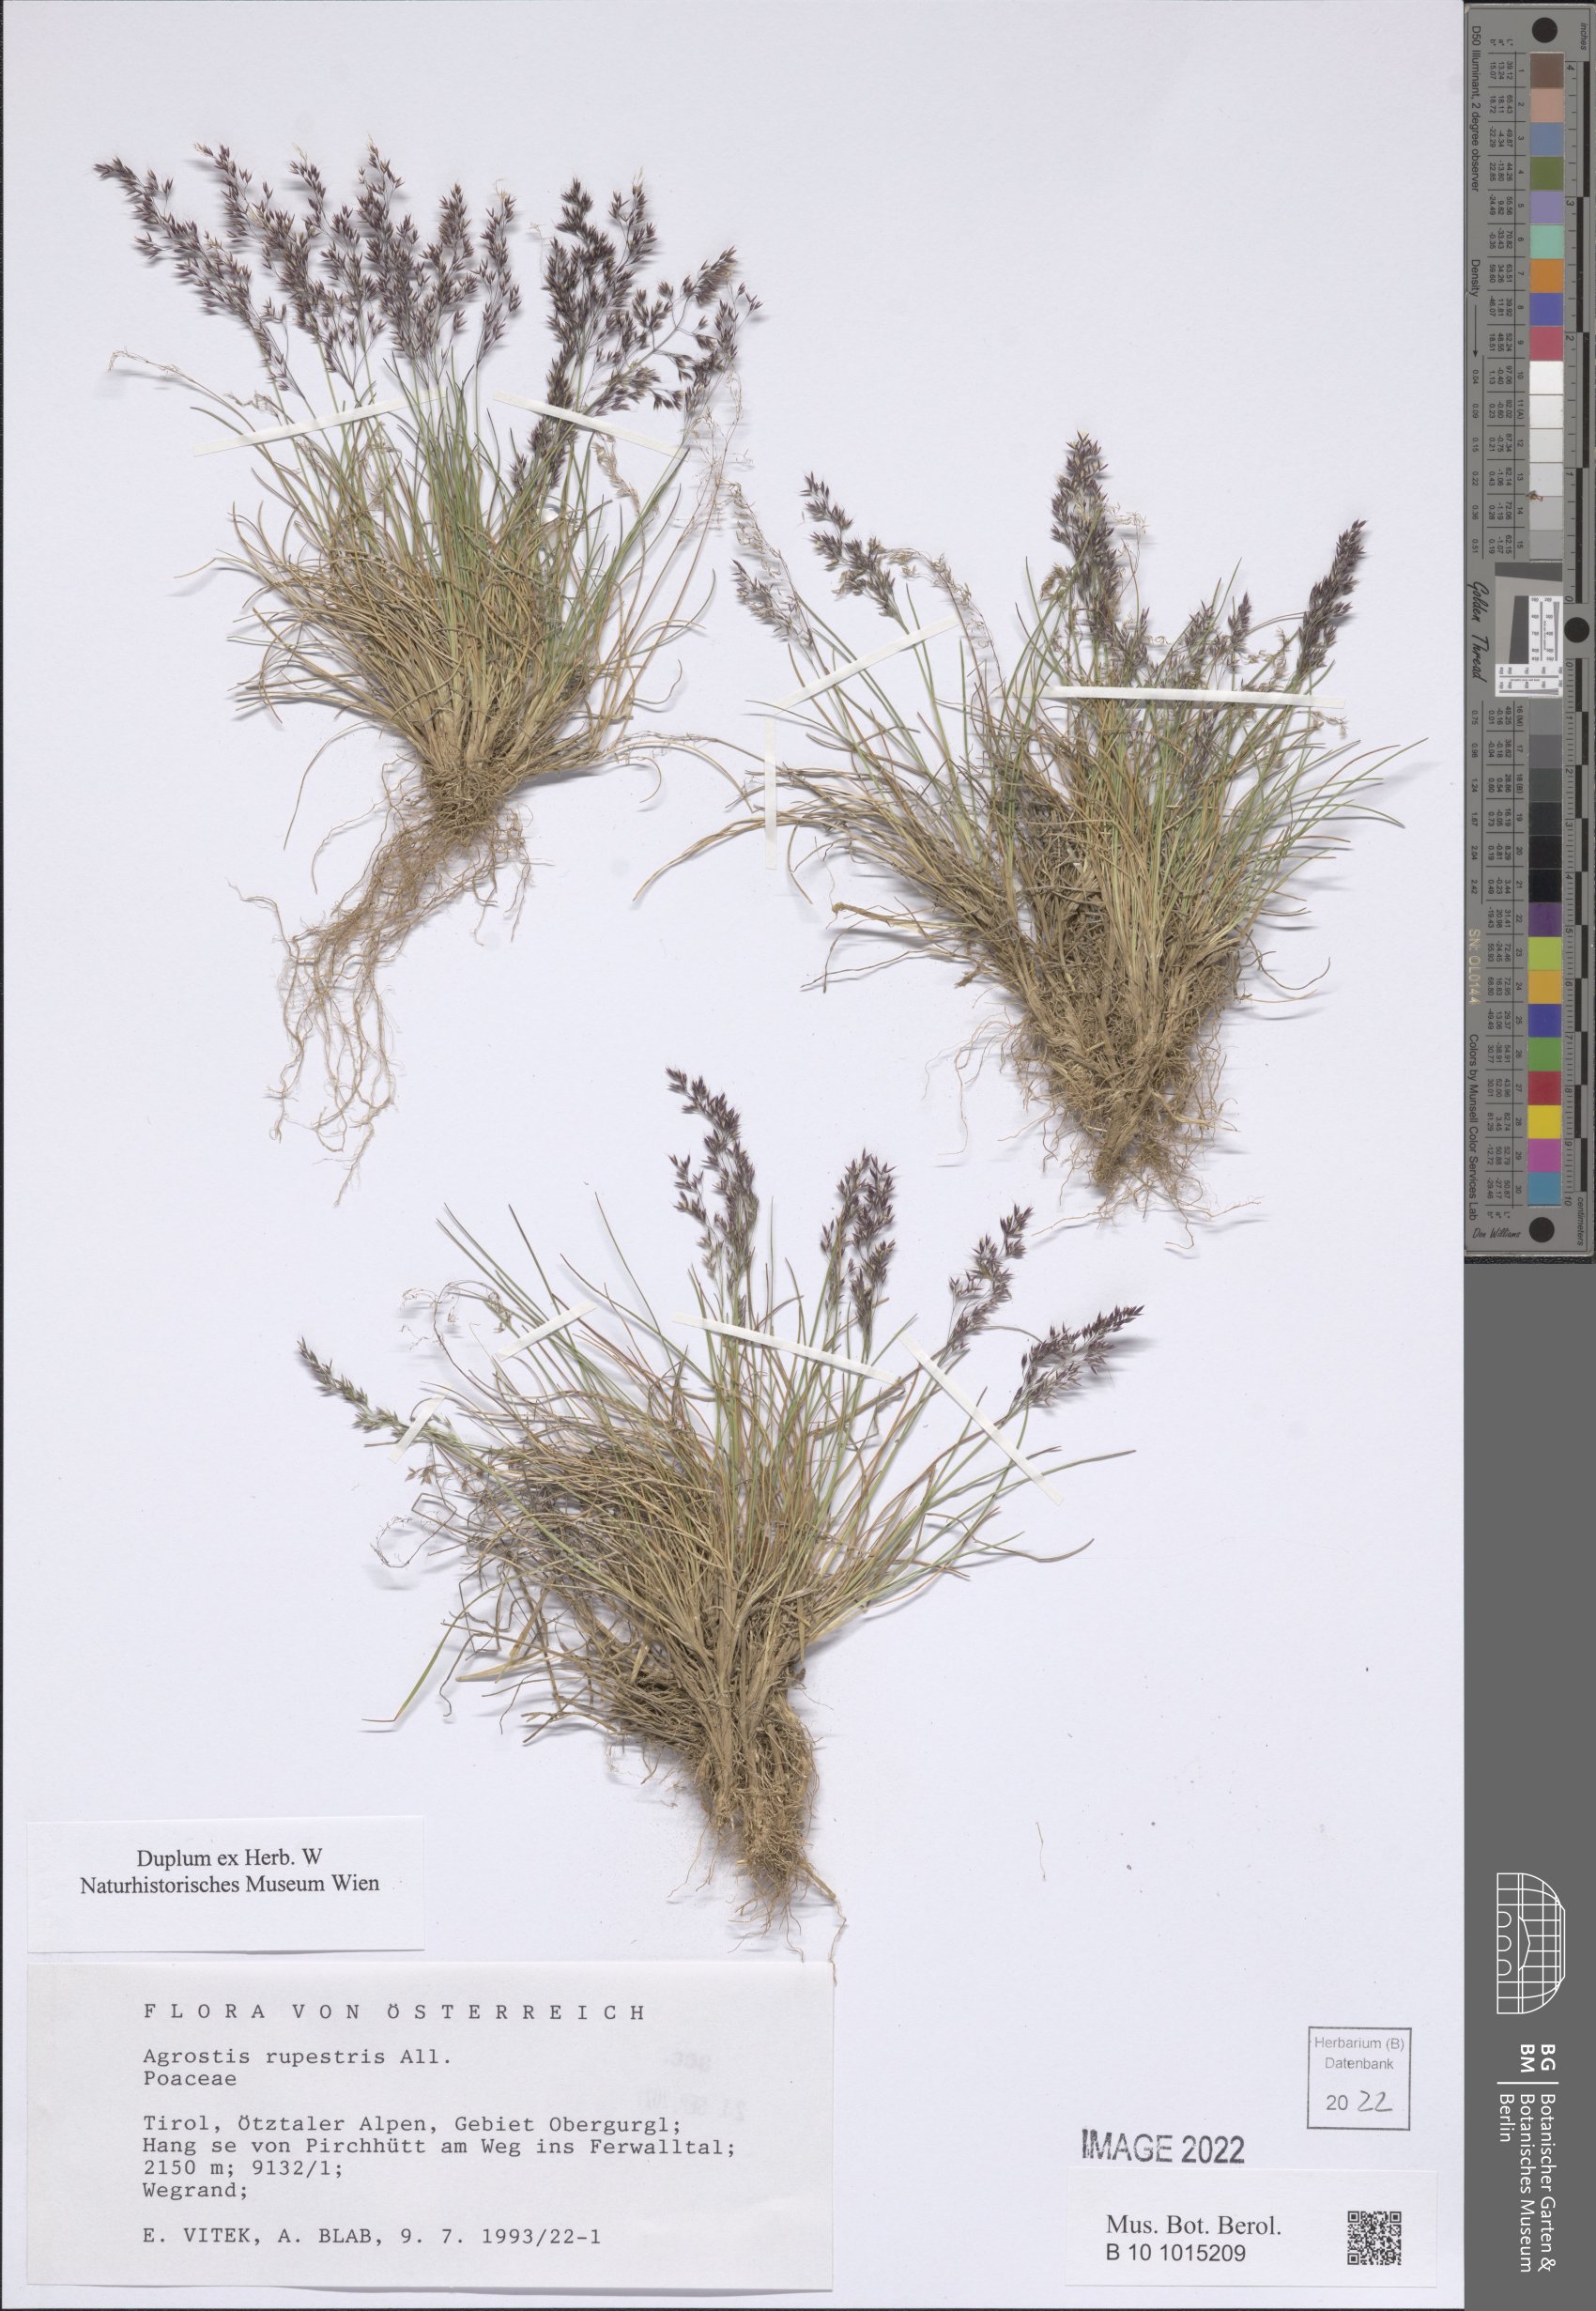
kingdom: Plantae
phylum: Tracheophyta
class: Liliopsida
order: Poales
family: Poaceae
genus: Agrostis
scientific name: Agrostis rupestris
